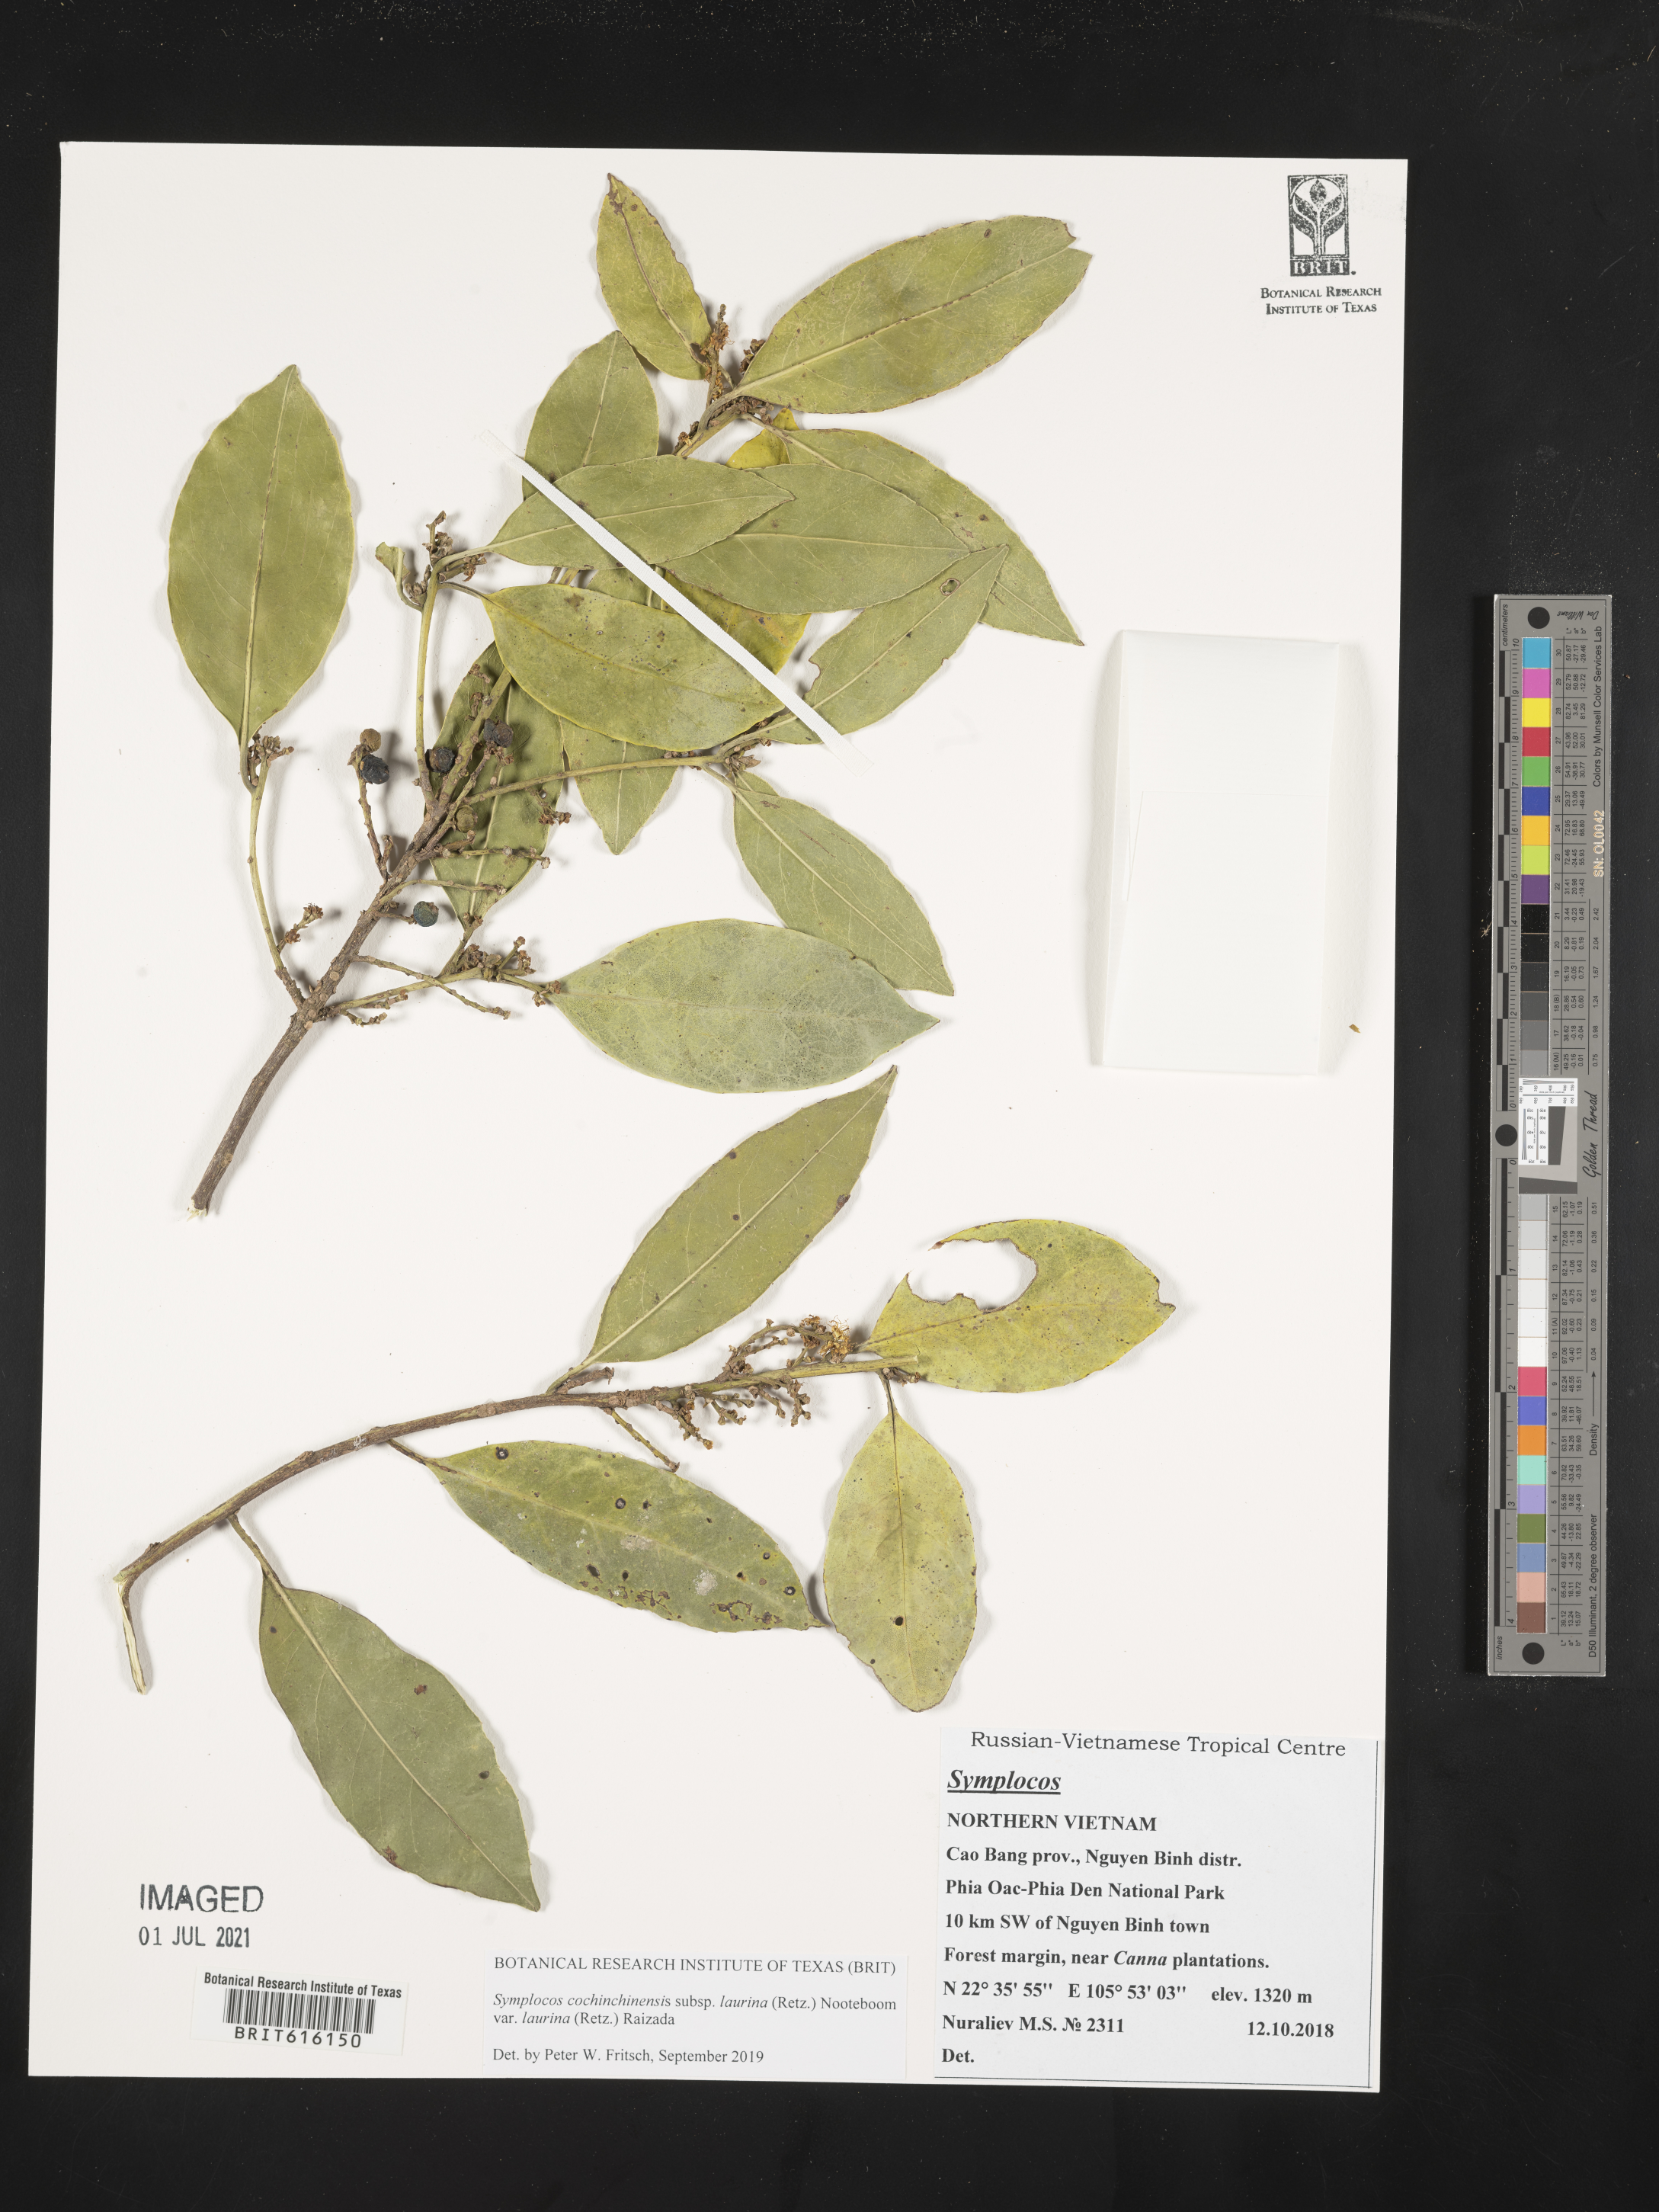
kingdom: Plantae
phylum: Tracheophyta
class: Magnoliopsida
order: Ericales
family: Symplocaceae
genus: Symplocos
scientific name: Symplocos acuminata
